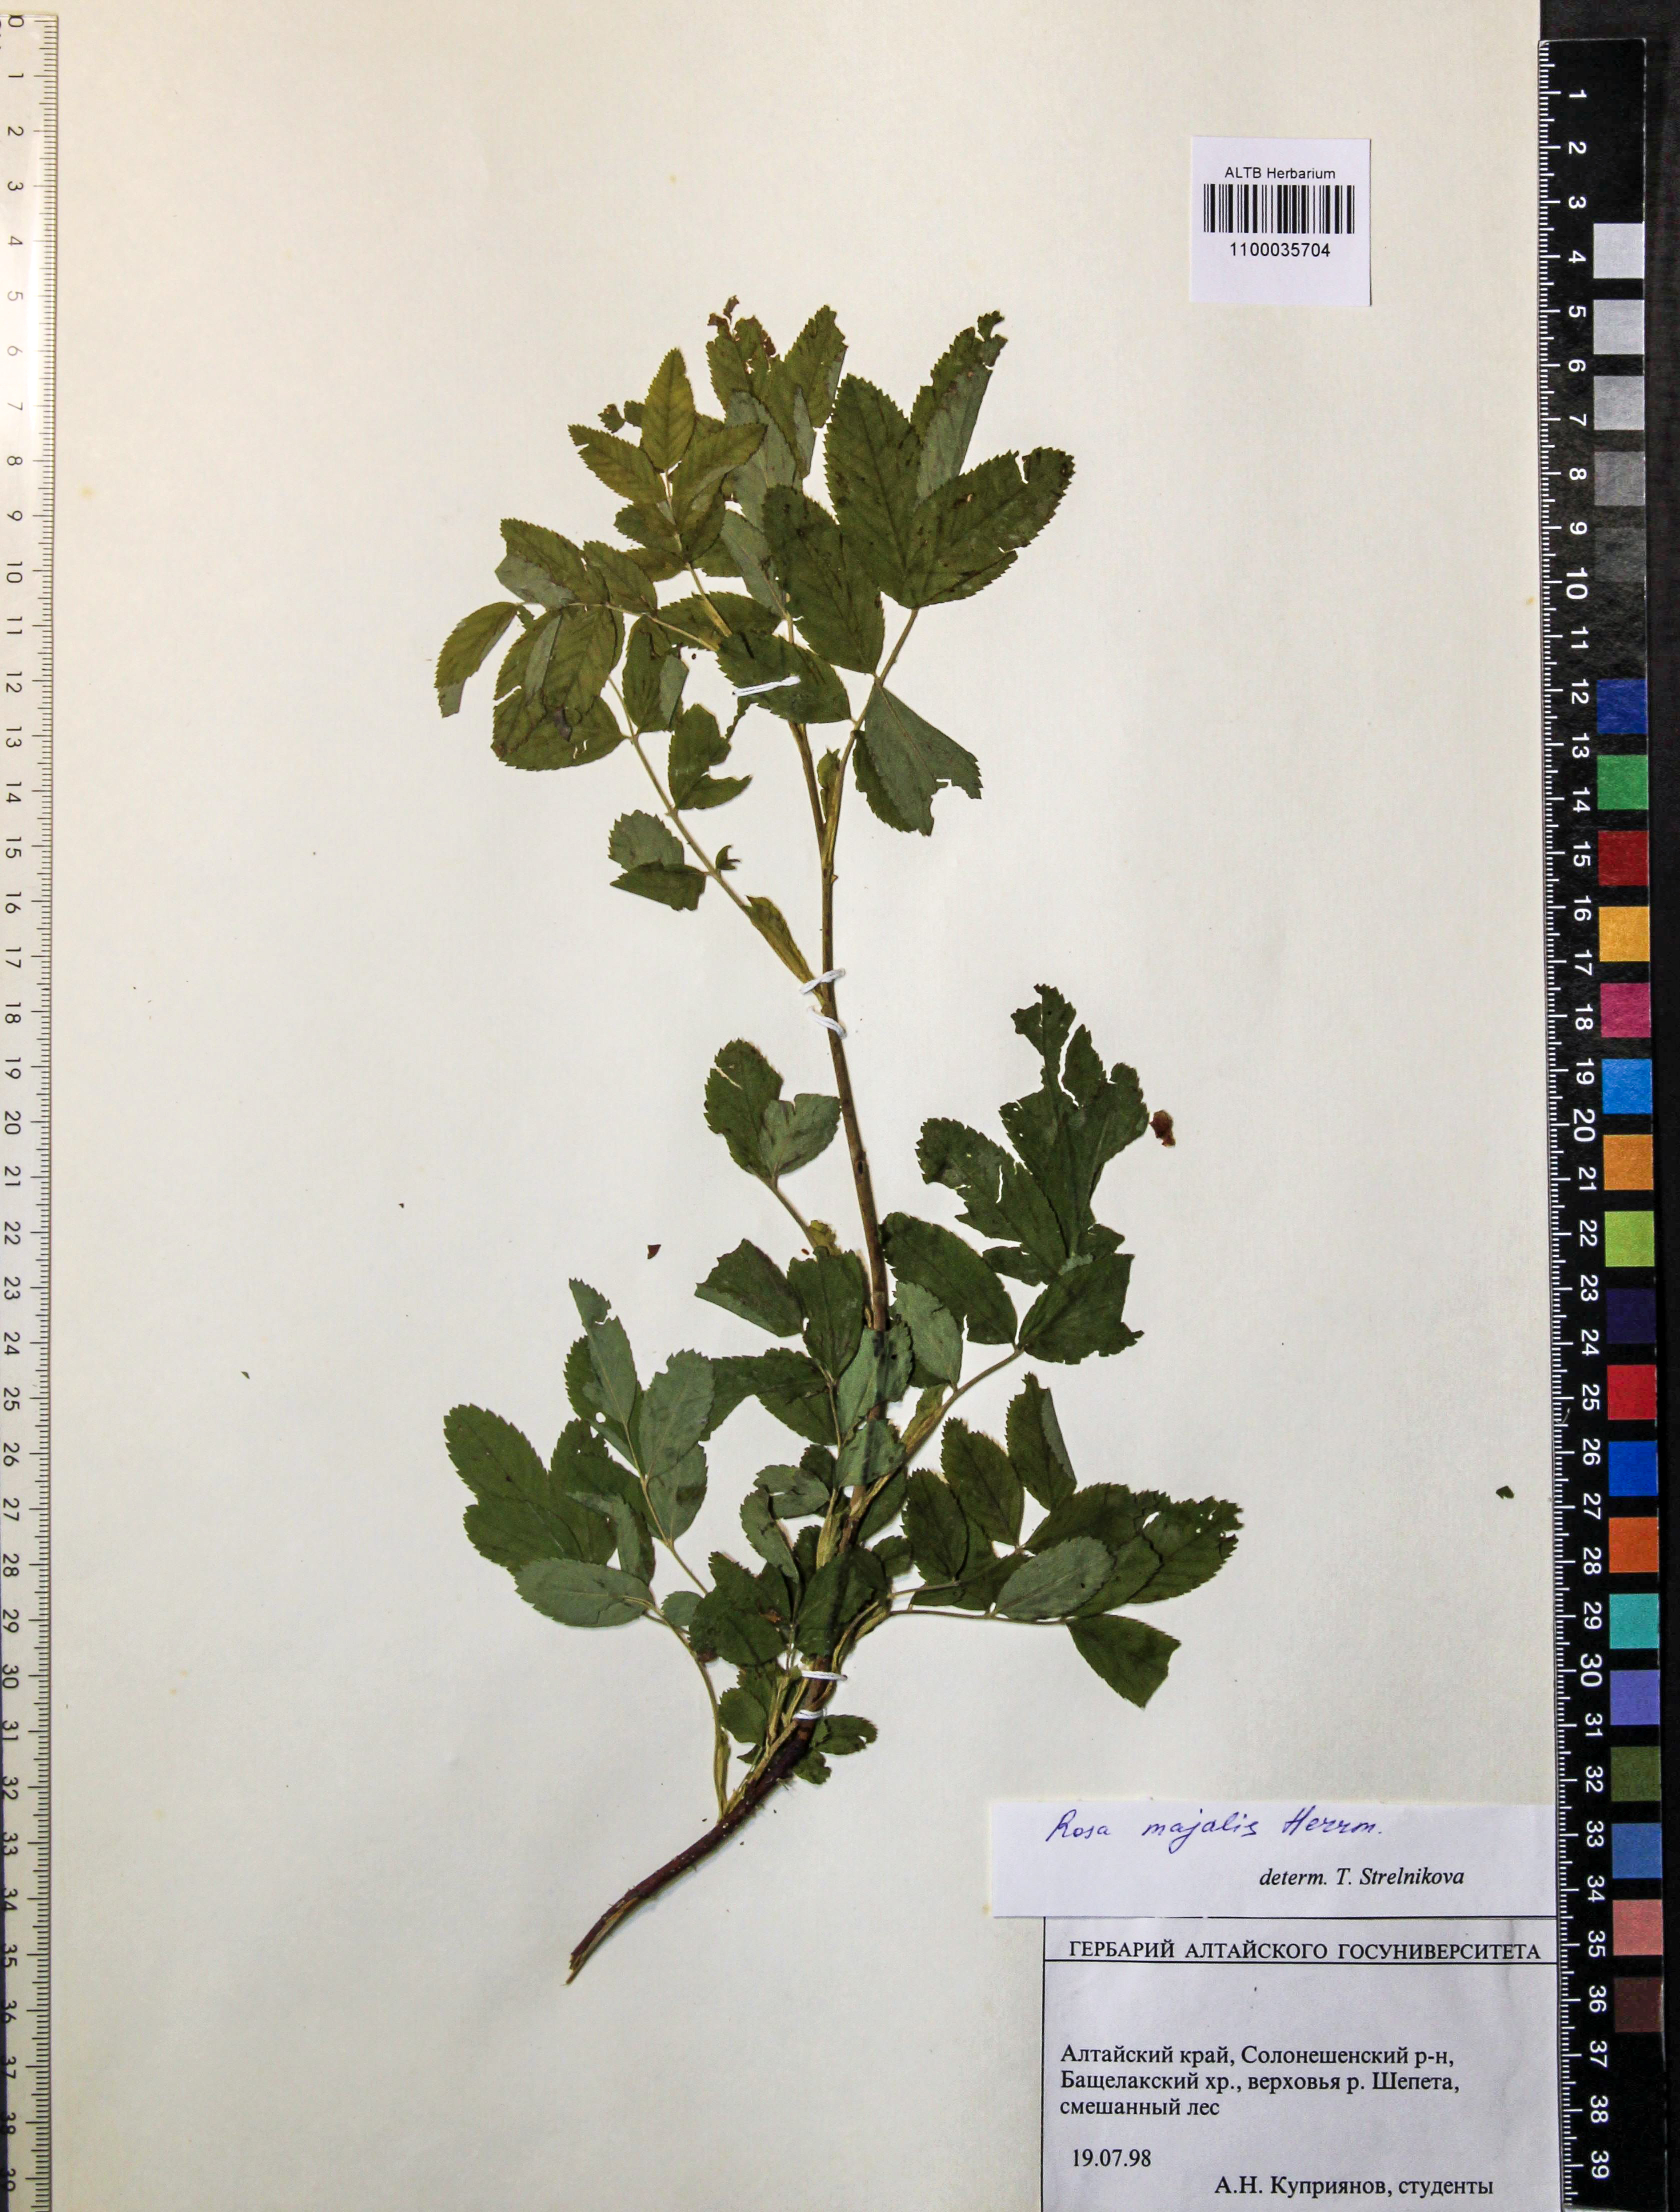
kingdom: Plantae
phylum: Tracheophyta
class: Magnoliopsida
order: Rosales
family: Rosaceae
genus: Rosa
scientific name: Rosa majalis
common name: Cinnamon rose
